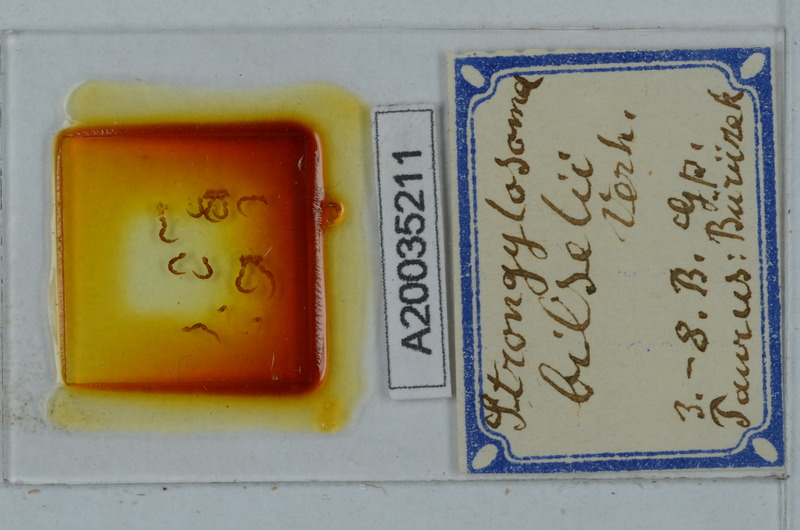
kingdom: Animalia
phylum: Arthropoda
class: Diplopoda
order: Polydesmida
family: Paradoxosomatidae
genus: Tetrarthrosoma
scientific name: Tetrarthrosoma bilselii
